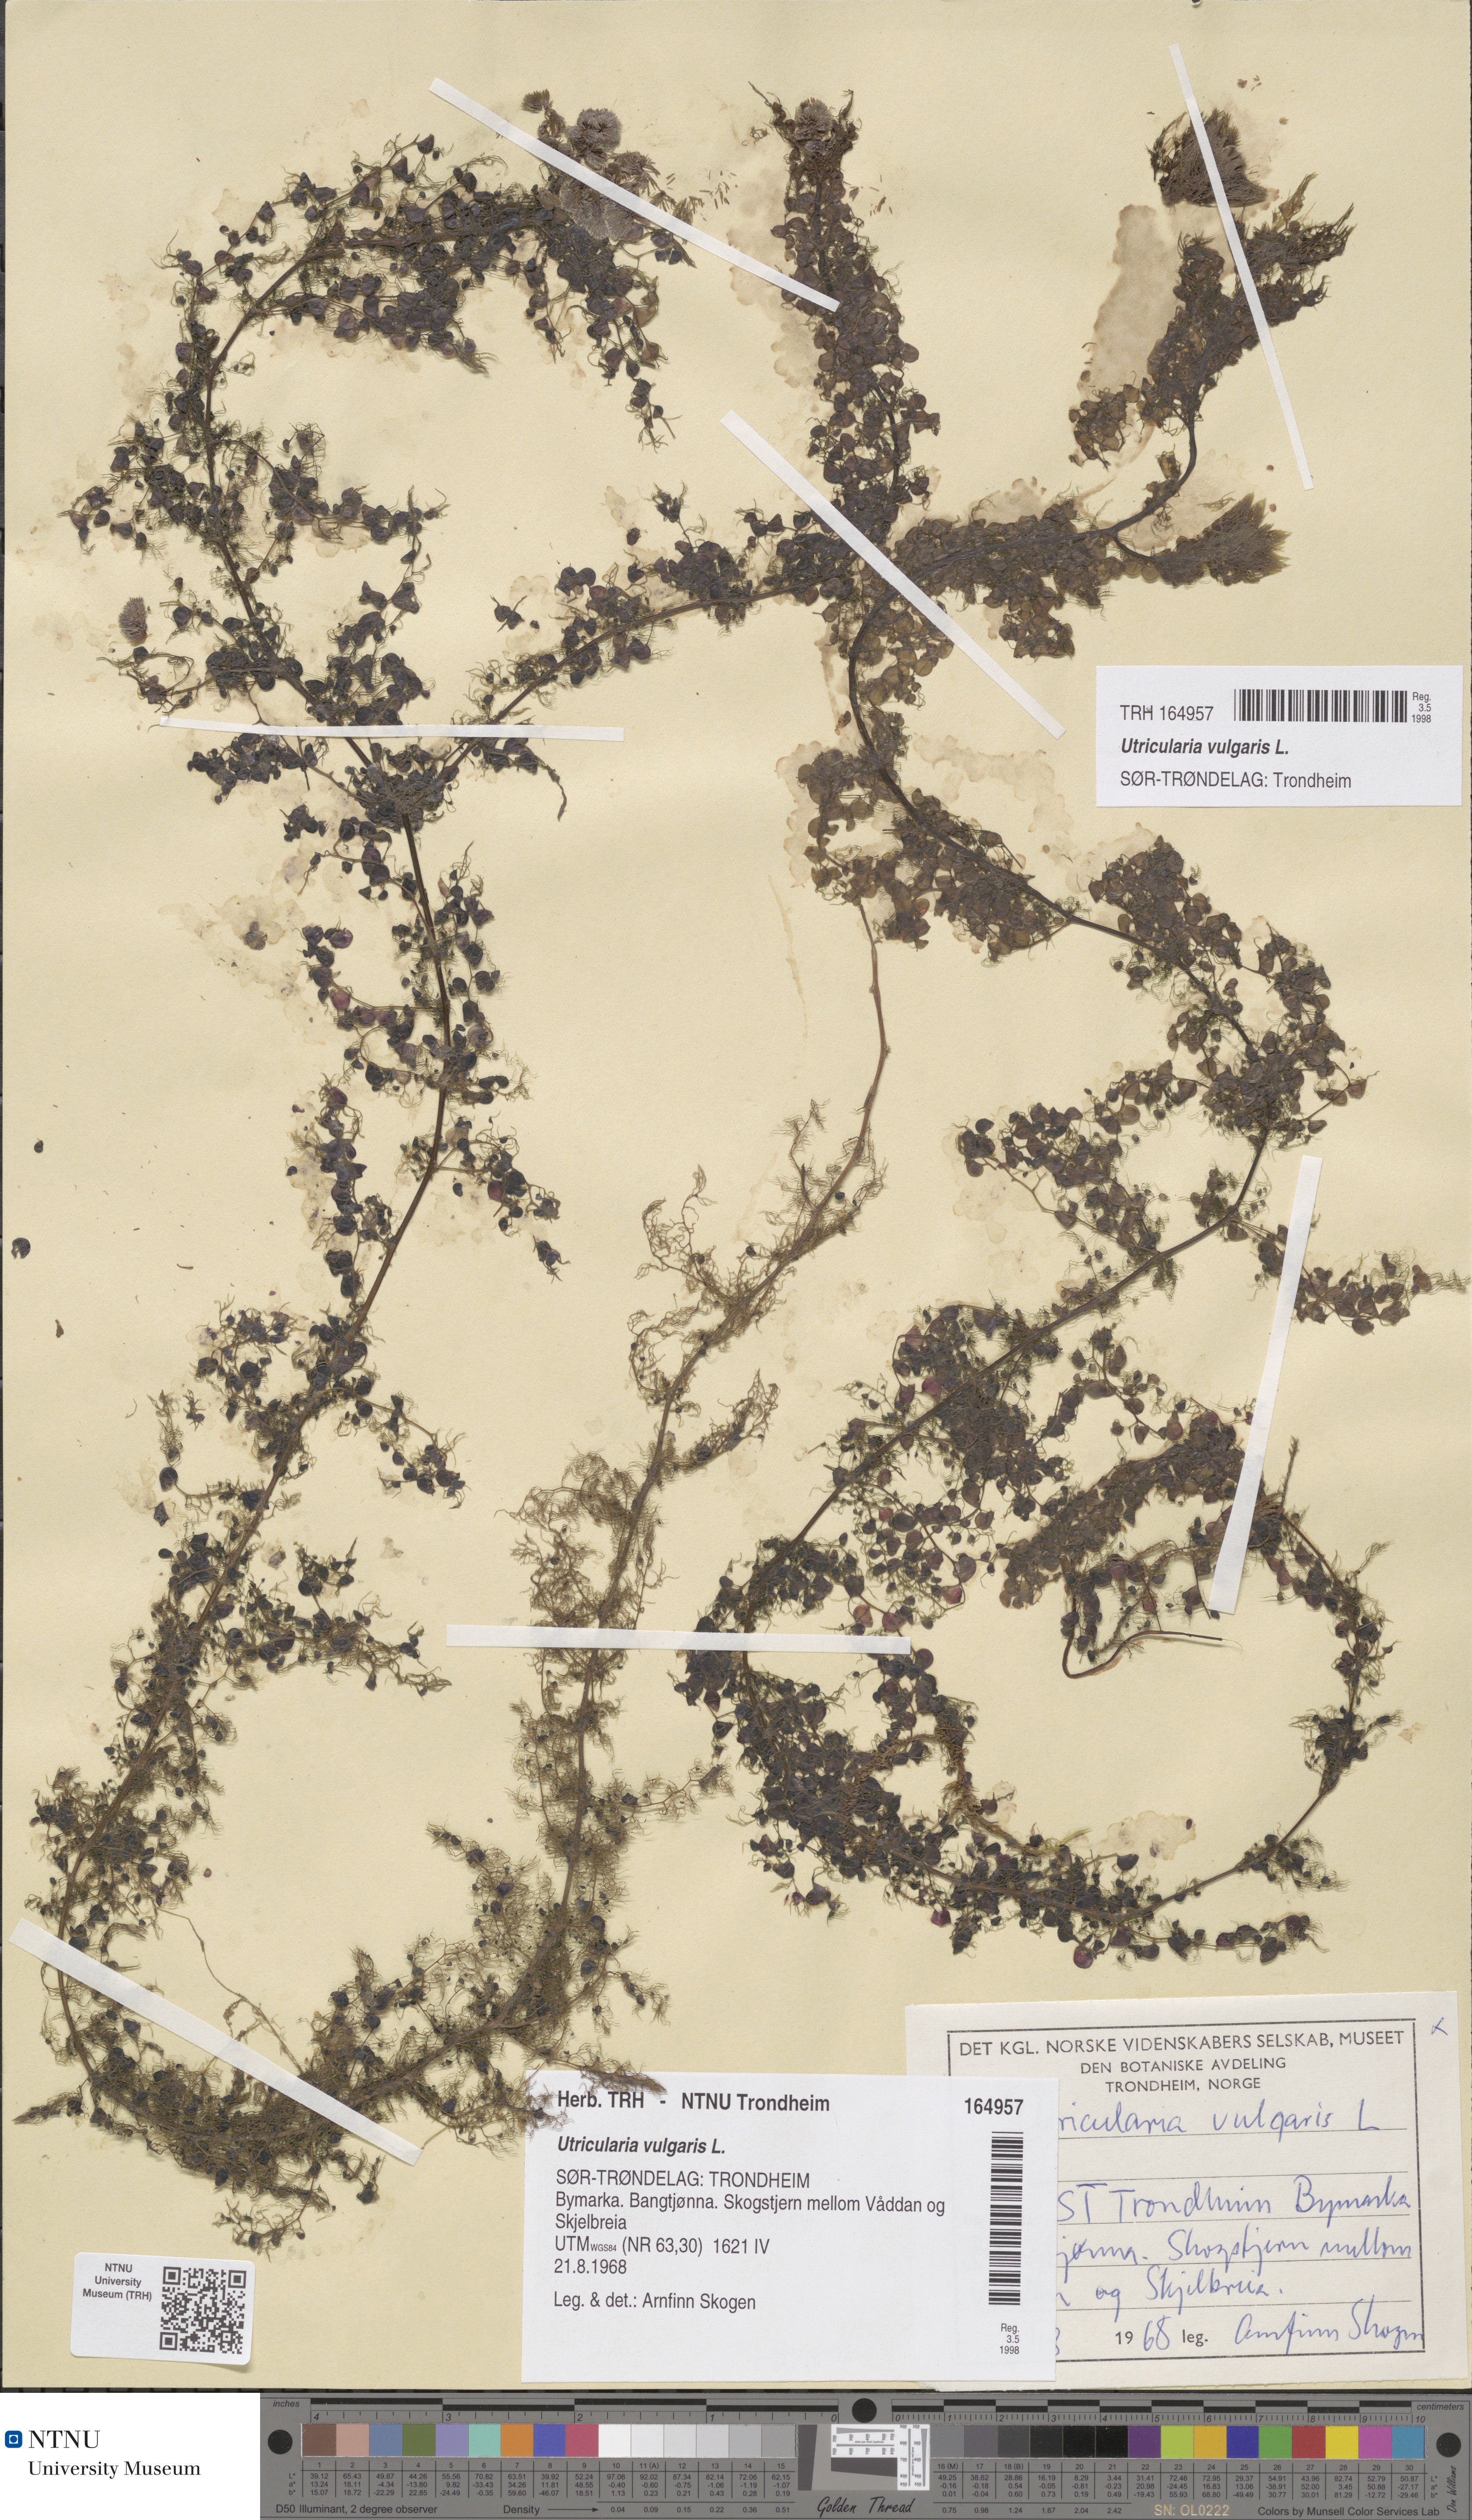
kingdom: Plantae
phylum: Tracheophyta
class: Magnoliopsida
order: Lamiales
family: Lentibulariaceae
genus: Utricularia
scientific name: Utricularia vulgaris
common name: Greater bladderwort
